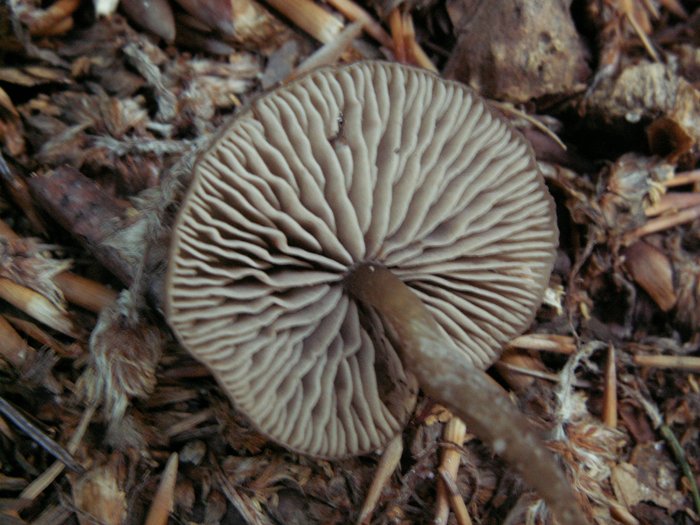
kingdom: Fungi
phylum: Basidiomycota
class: Agaricomycetes
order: Agaricales
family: Entolomataceae
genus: Entoloma
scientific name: Entoloma minutum
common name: liden rødblad
